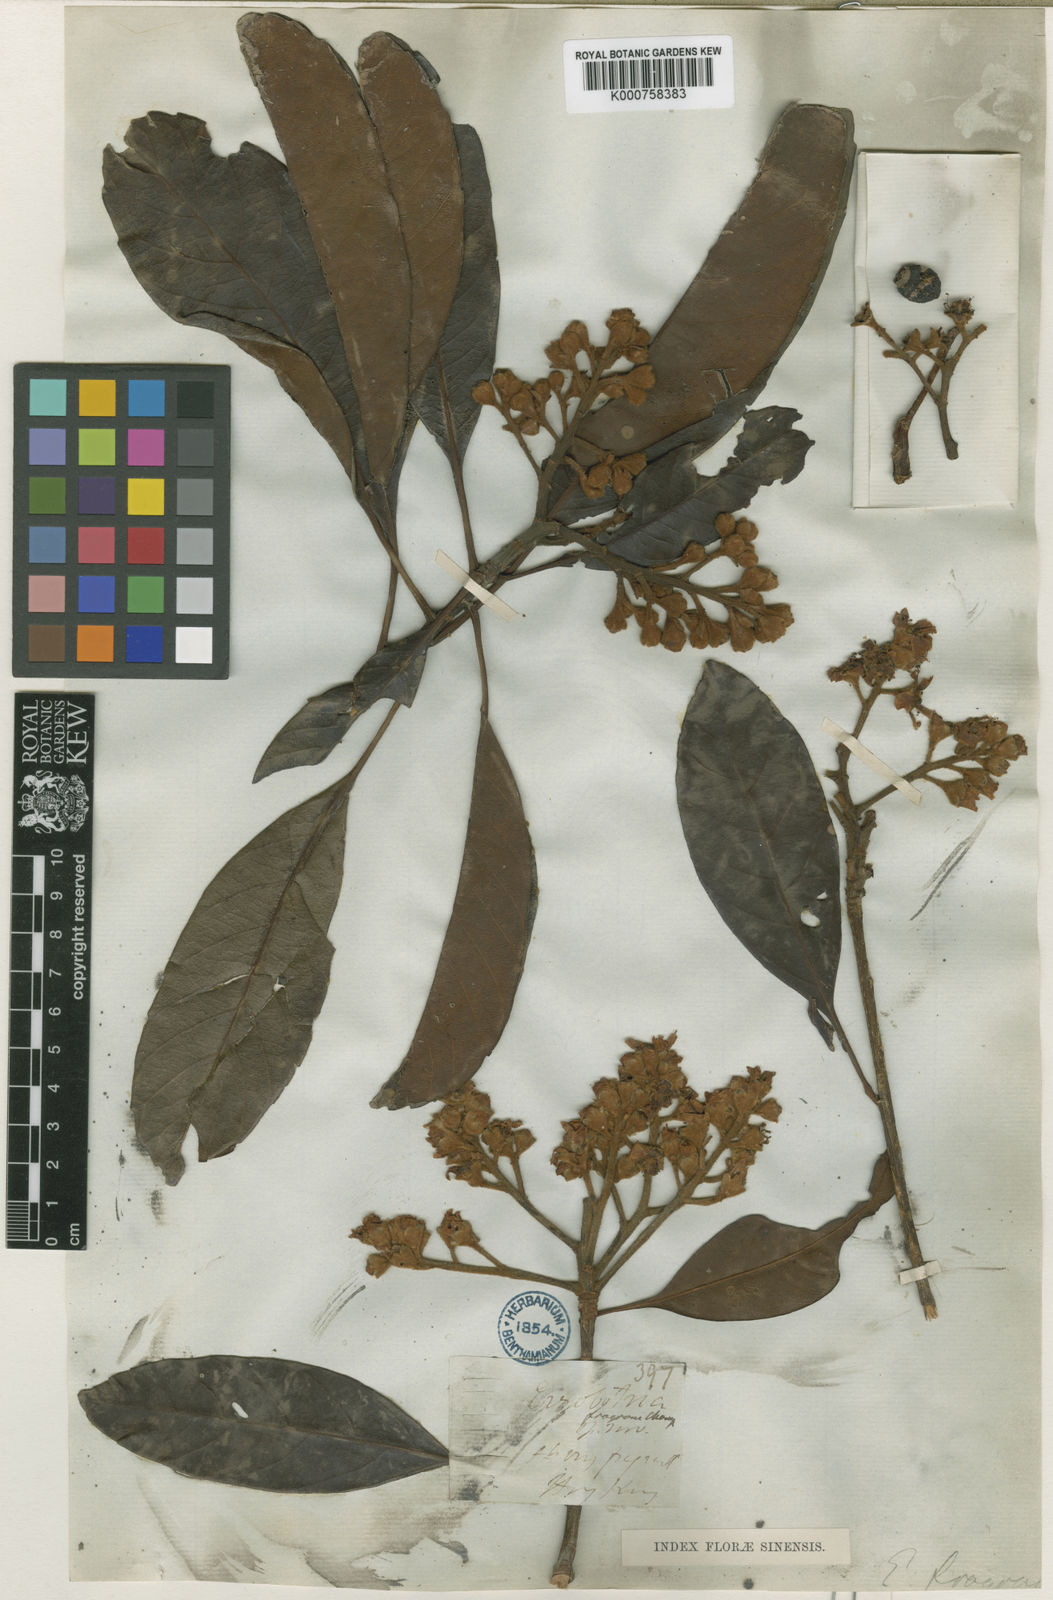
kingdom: Plantae
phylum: Tracheophyta
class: Magnoliopsida
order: Rosales
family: Rosaceae
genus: Rhaphiolepis
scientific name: Rhaphiolepis williamtelliana
